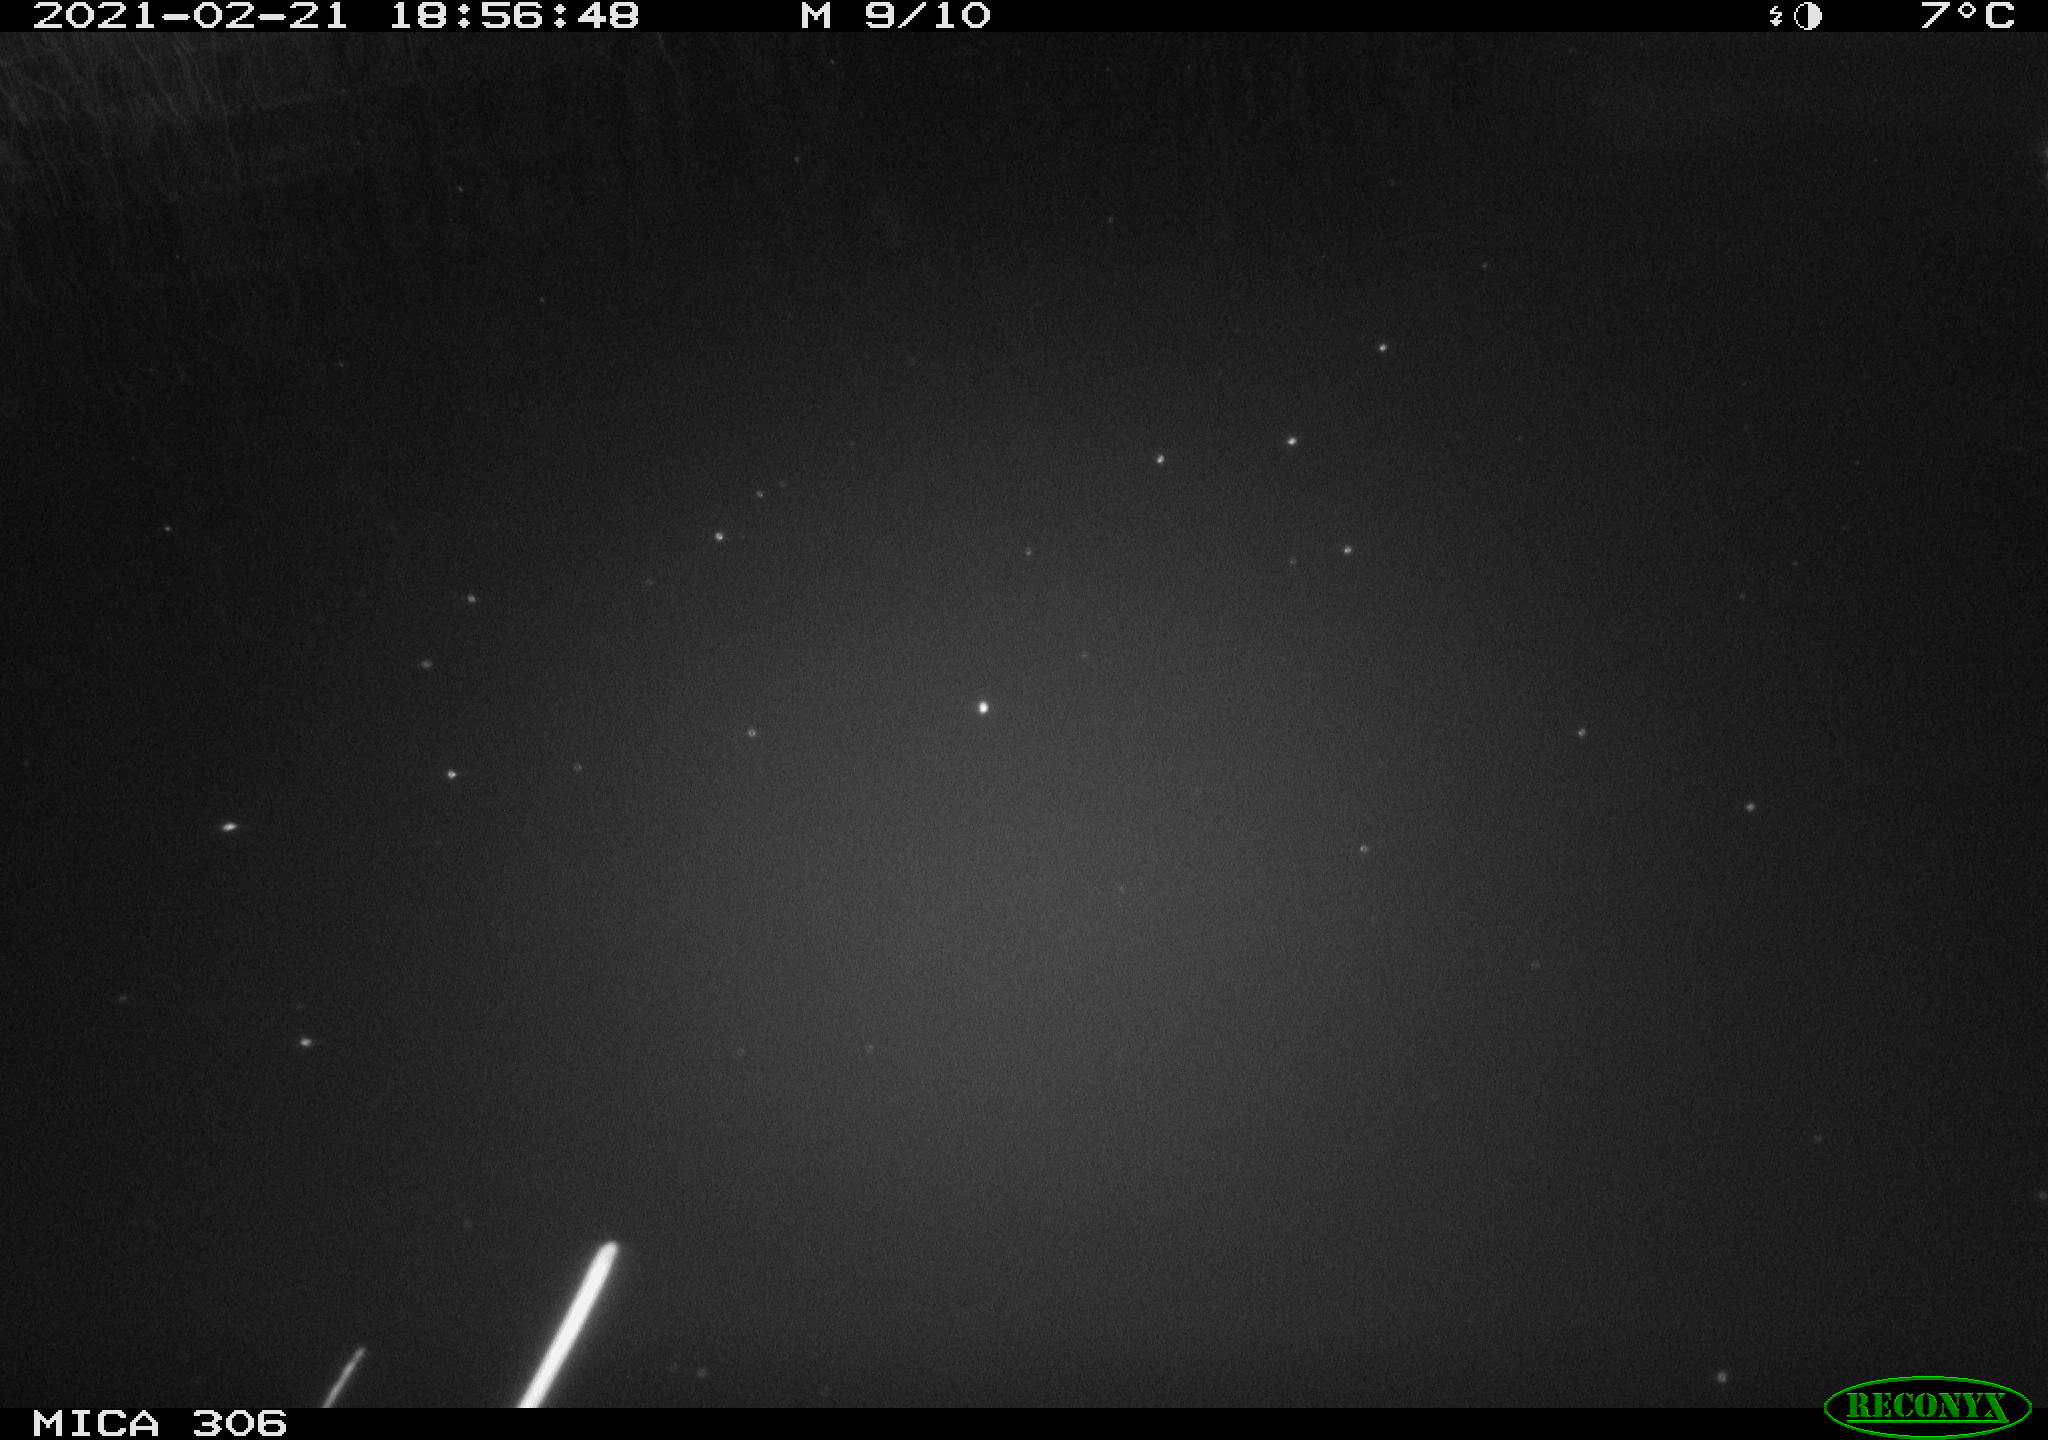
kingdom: Animalia
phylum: Chordata
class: Aves
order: Gruiformes
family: Rallidae
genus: Gallinula
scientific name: Gallinula chloropus
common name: Common moorhen
